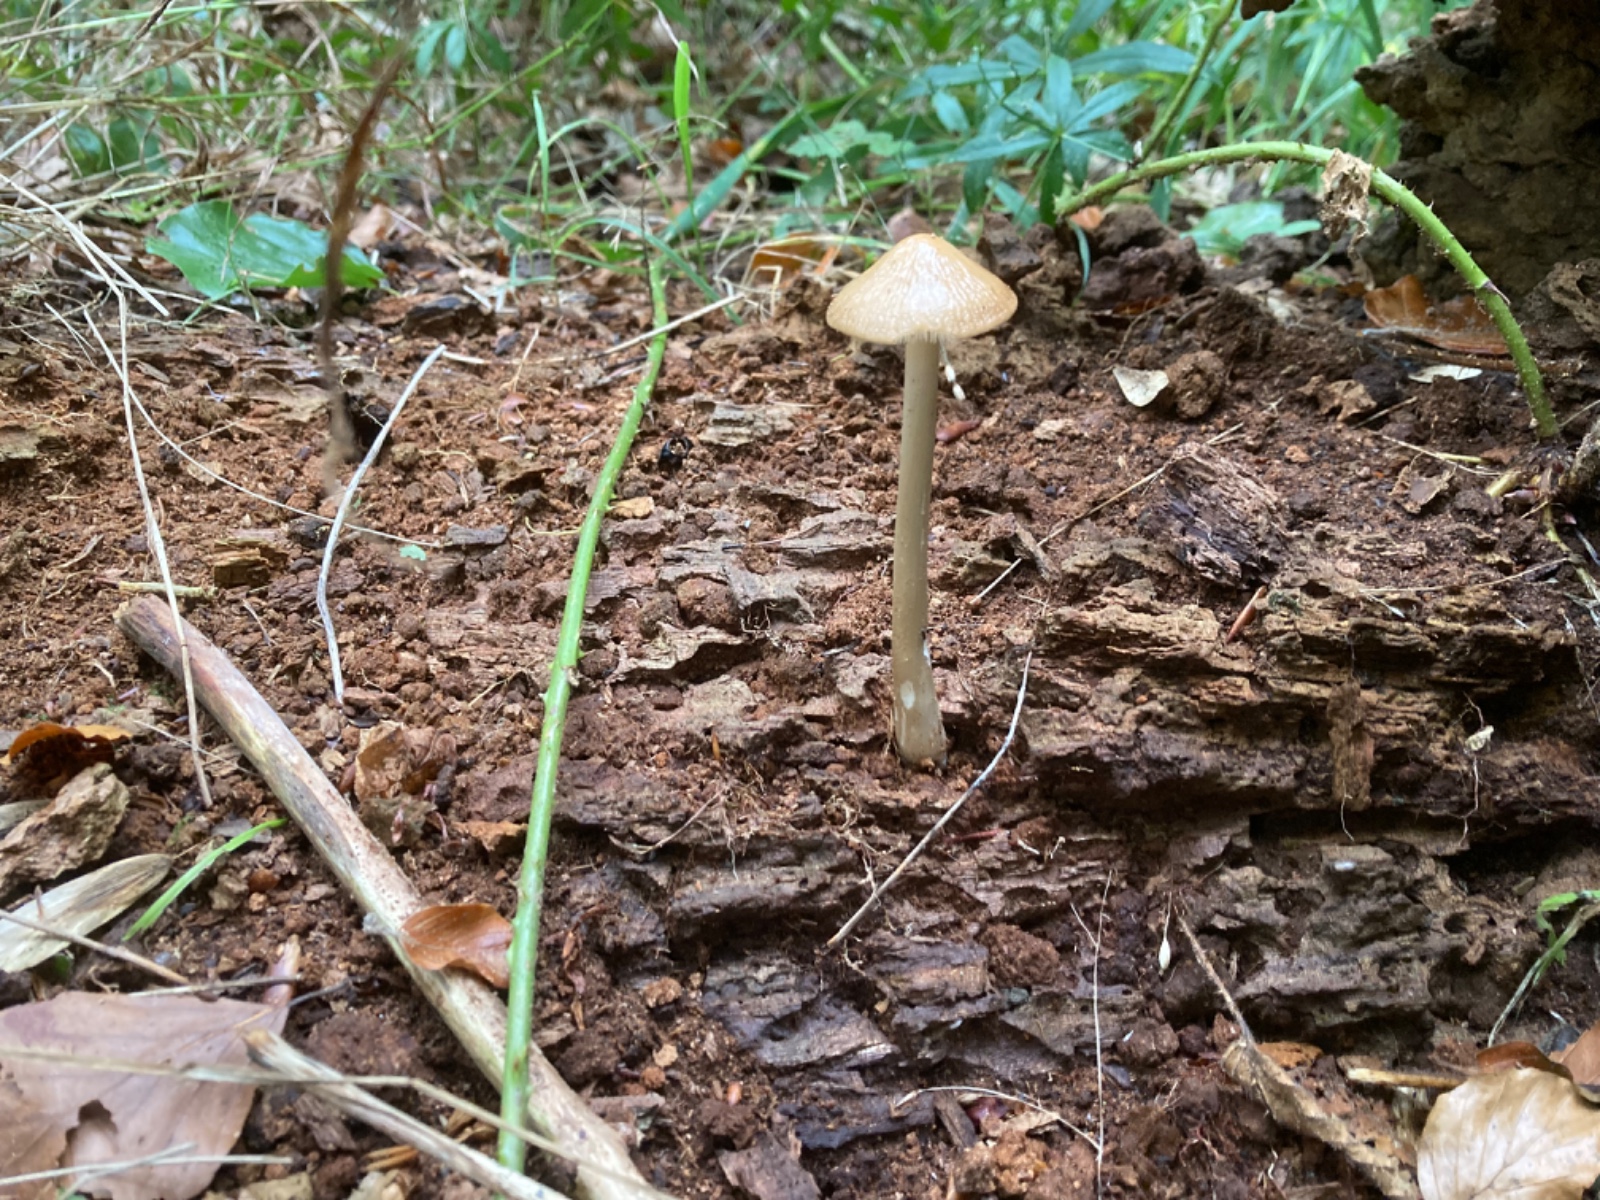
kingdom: Fungi
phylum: Basidiomycota
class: Agaricomycetes
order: Agaricales
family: Physalacriaceae
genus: Hymenopellis
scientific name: Hymenopellis radicata
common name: almindelig pælerodshat
